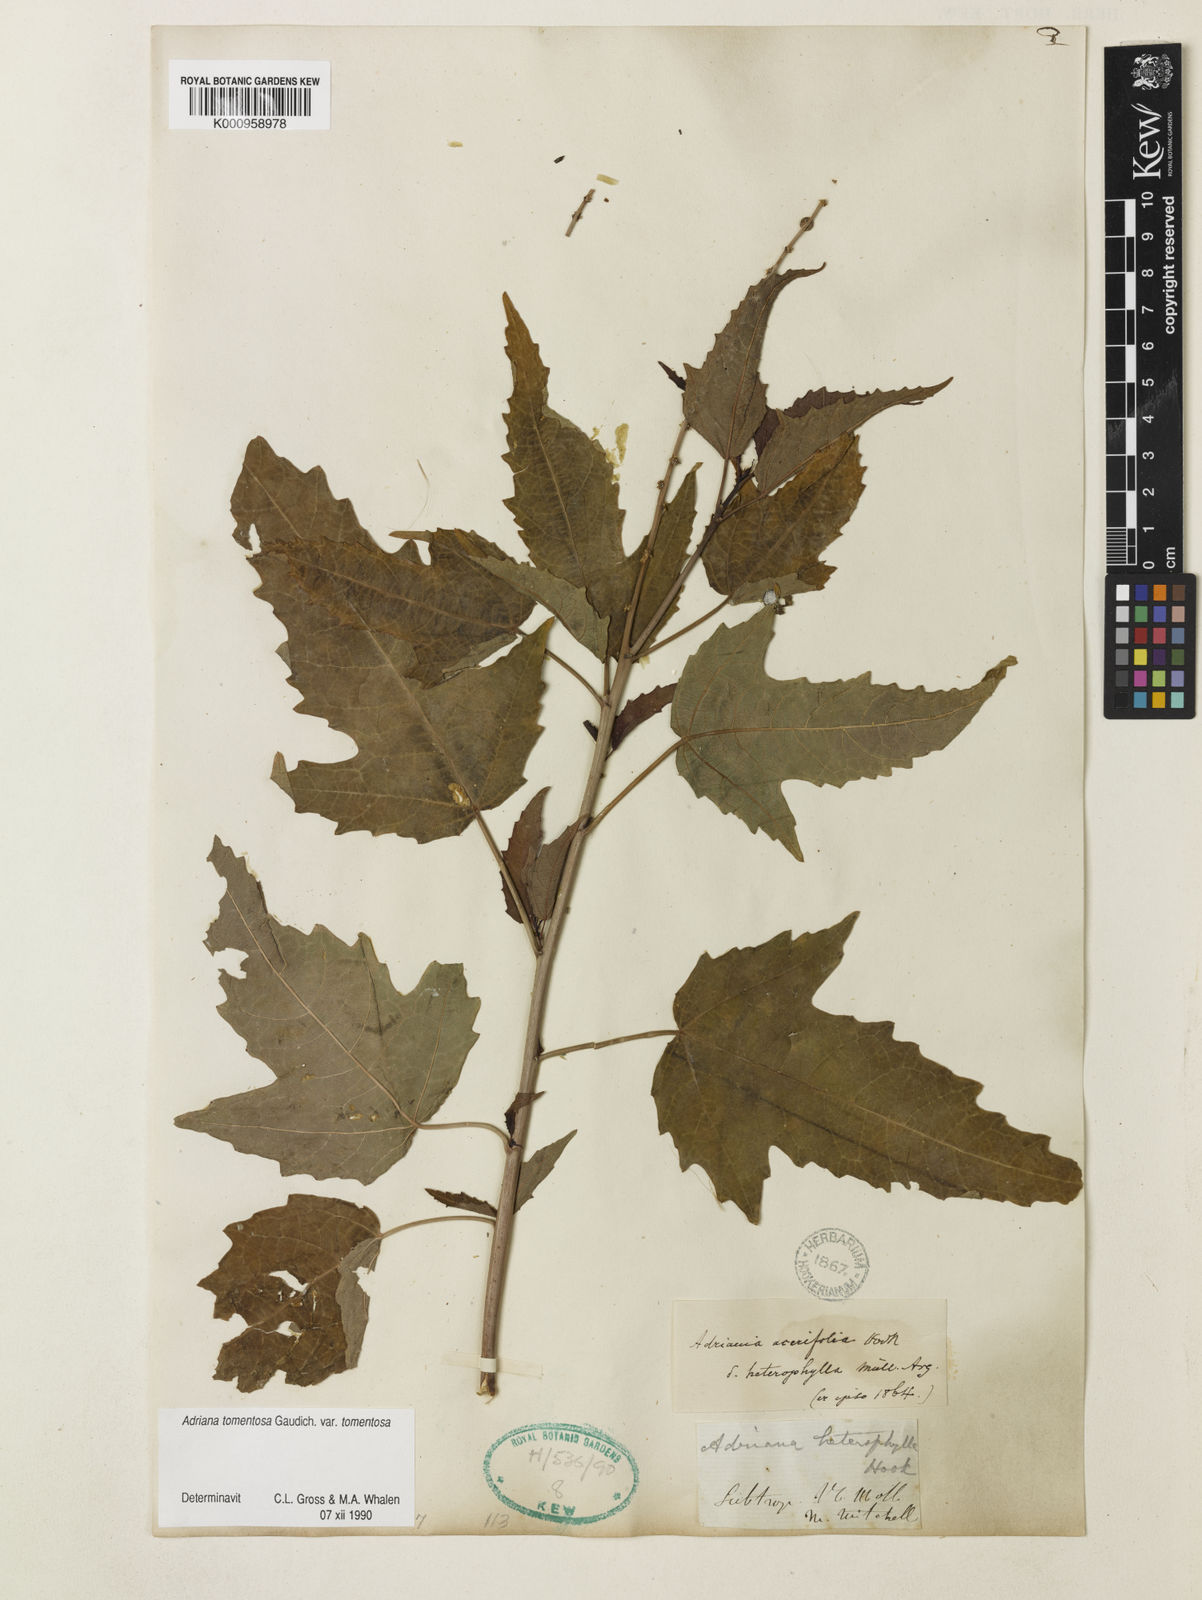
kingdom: Plantae
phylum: Tracheophyta
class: Magnoliopsida
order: Malpighiales
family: Euphorbiaceae
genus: Adriana
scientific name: Adriana tomentosa
